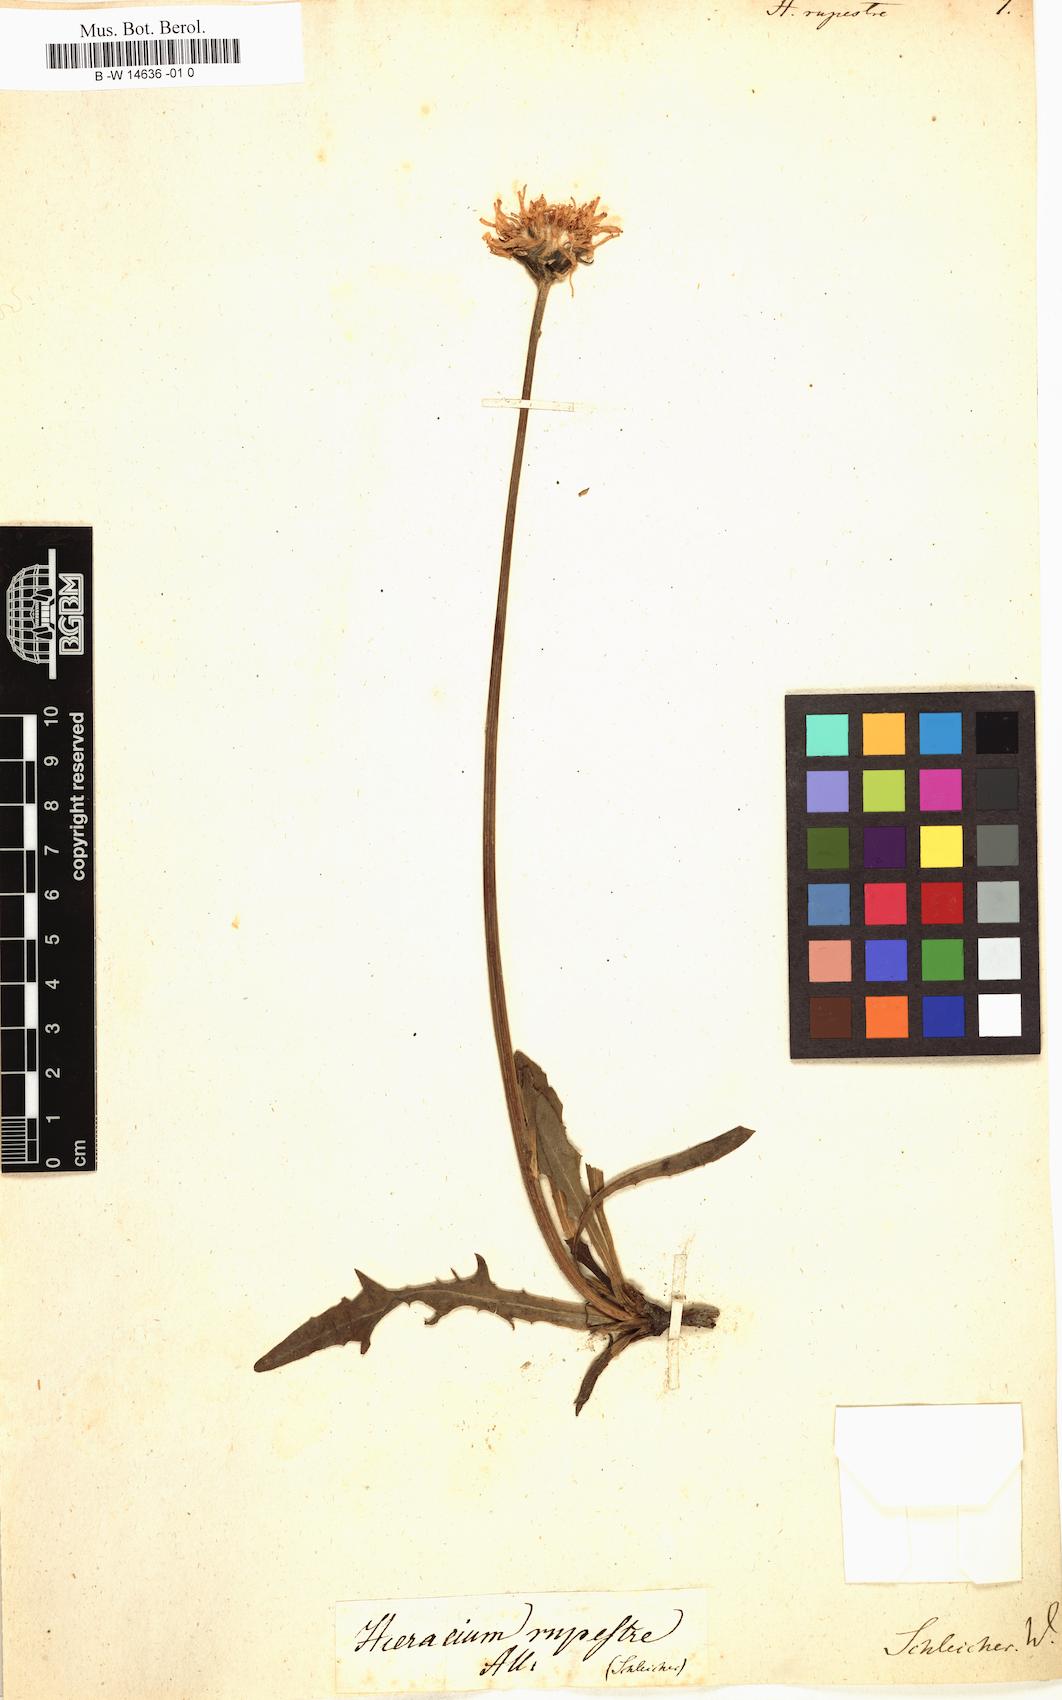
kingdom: Plantae
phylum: Tracheophyta
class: Magnoliopsida
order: Asterales
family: Asteraceae
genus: Hieracium
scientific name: Hieracium rupestre
